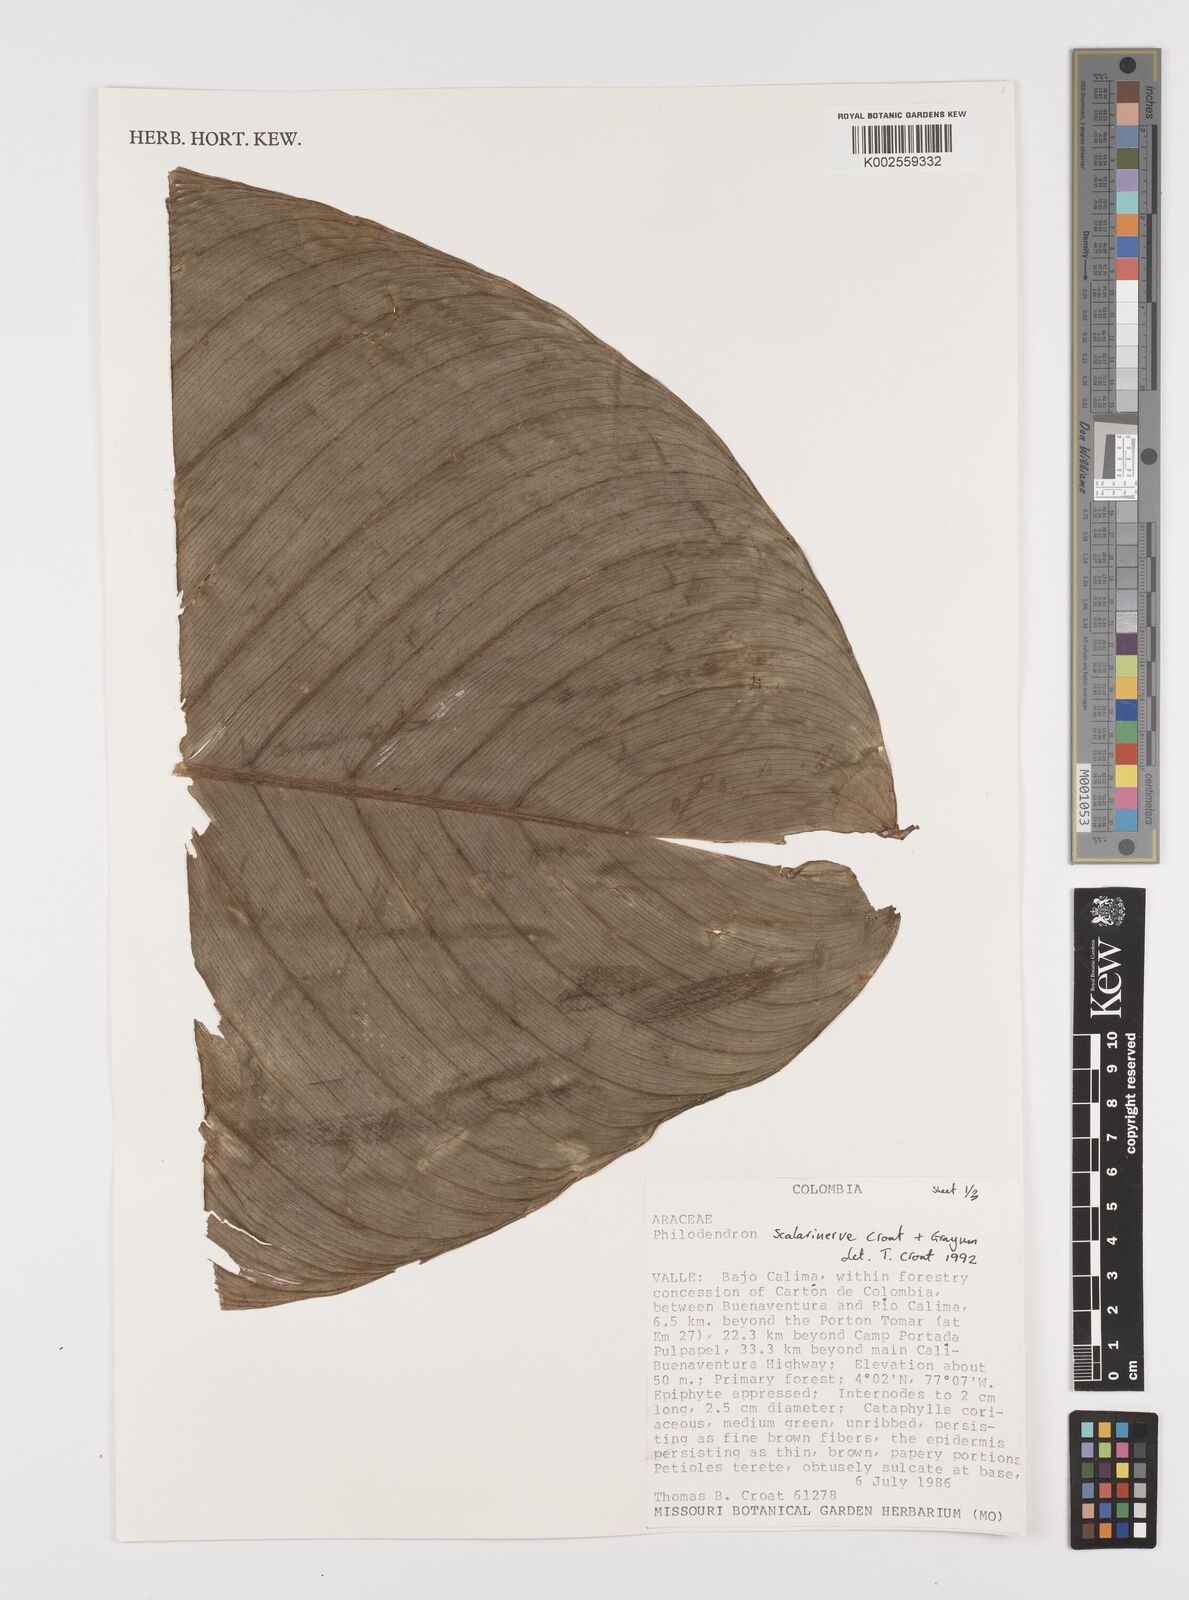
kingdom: Plantae
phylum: Tracheophyta
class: Liliopsida
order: Alismatales
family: Araceae
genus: Philodendron
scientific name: Philodendron scalarinerve
